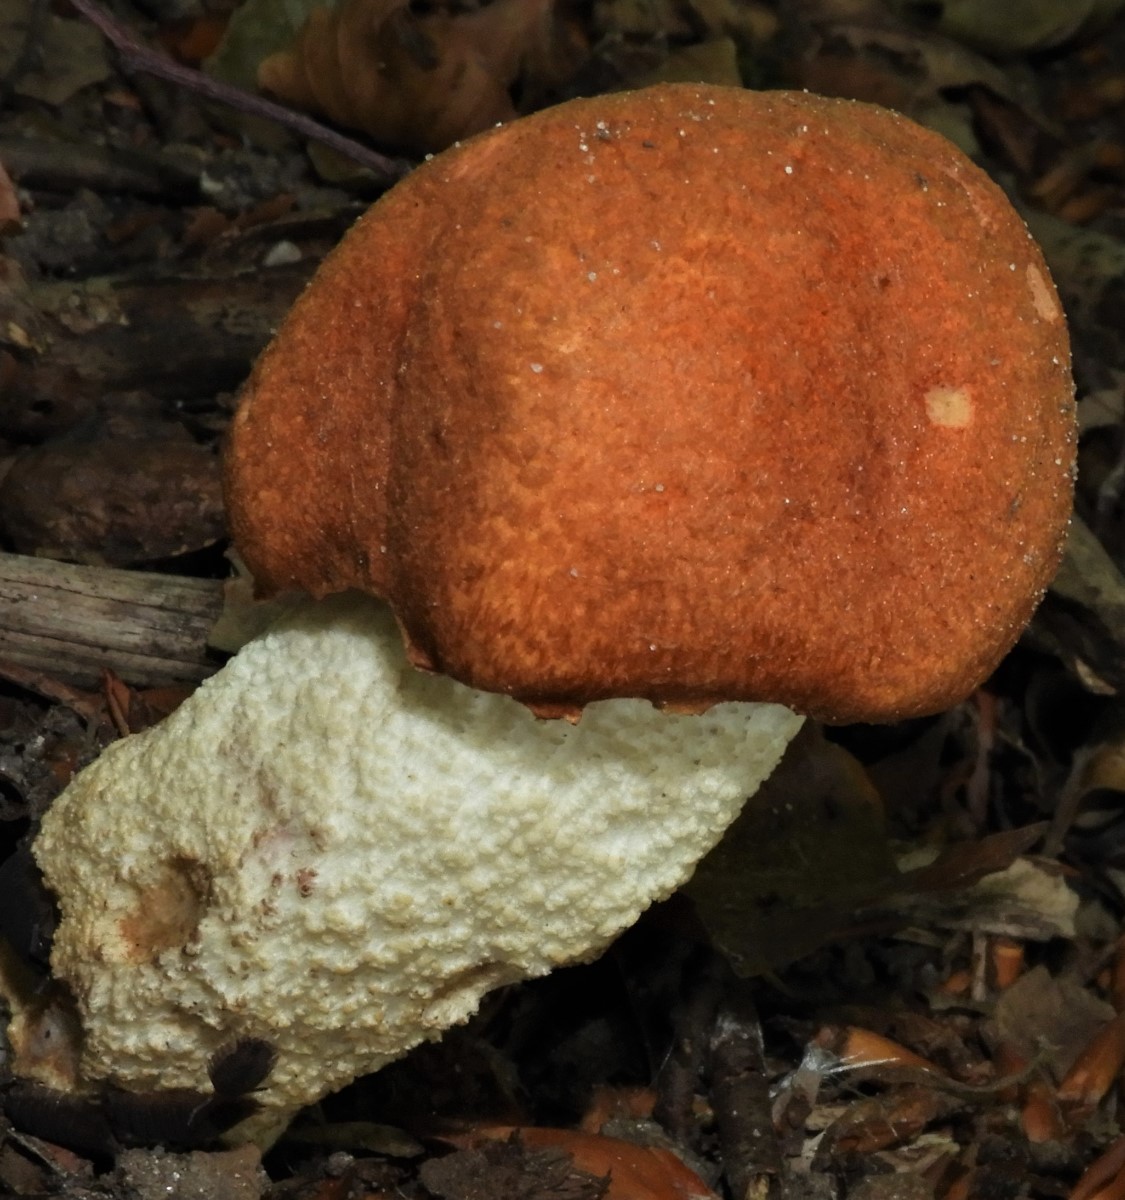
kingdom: Fungi
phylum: Basidiomycota
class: Agaricomycetes
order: Boletales
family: Boletaceae
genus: Leccinum
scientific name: Leccinum
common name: skælrørhat
